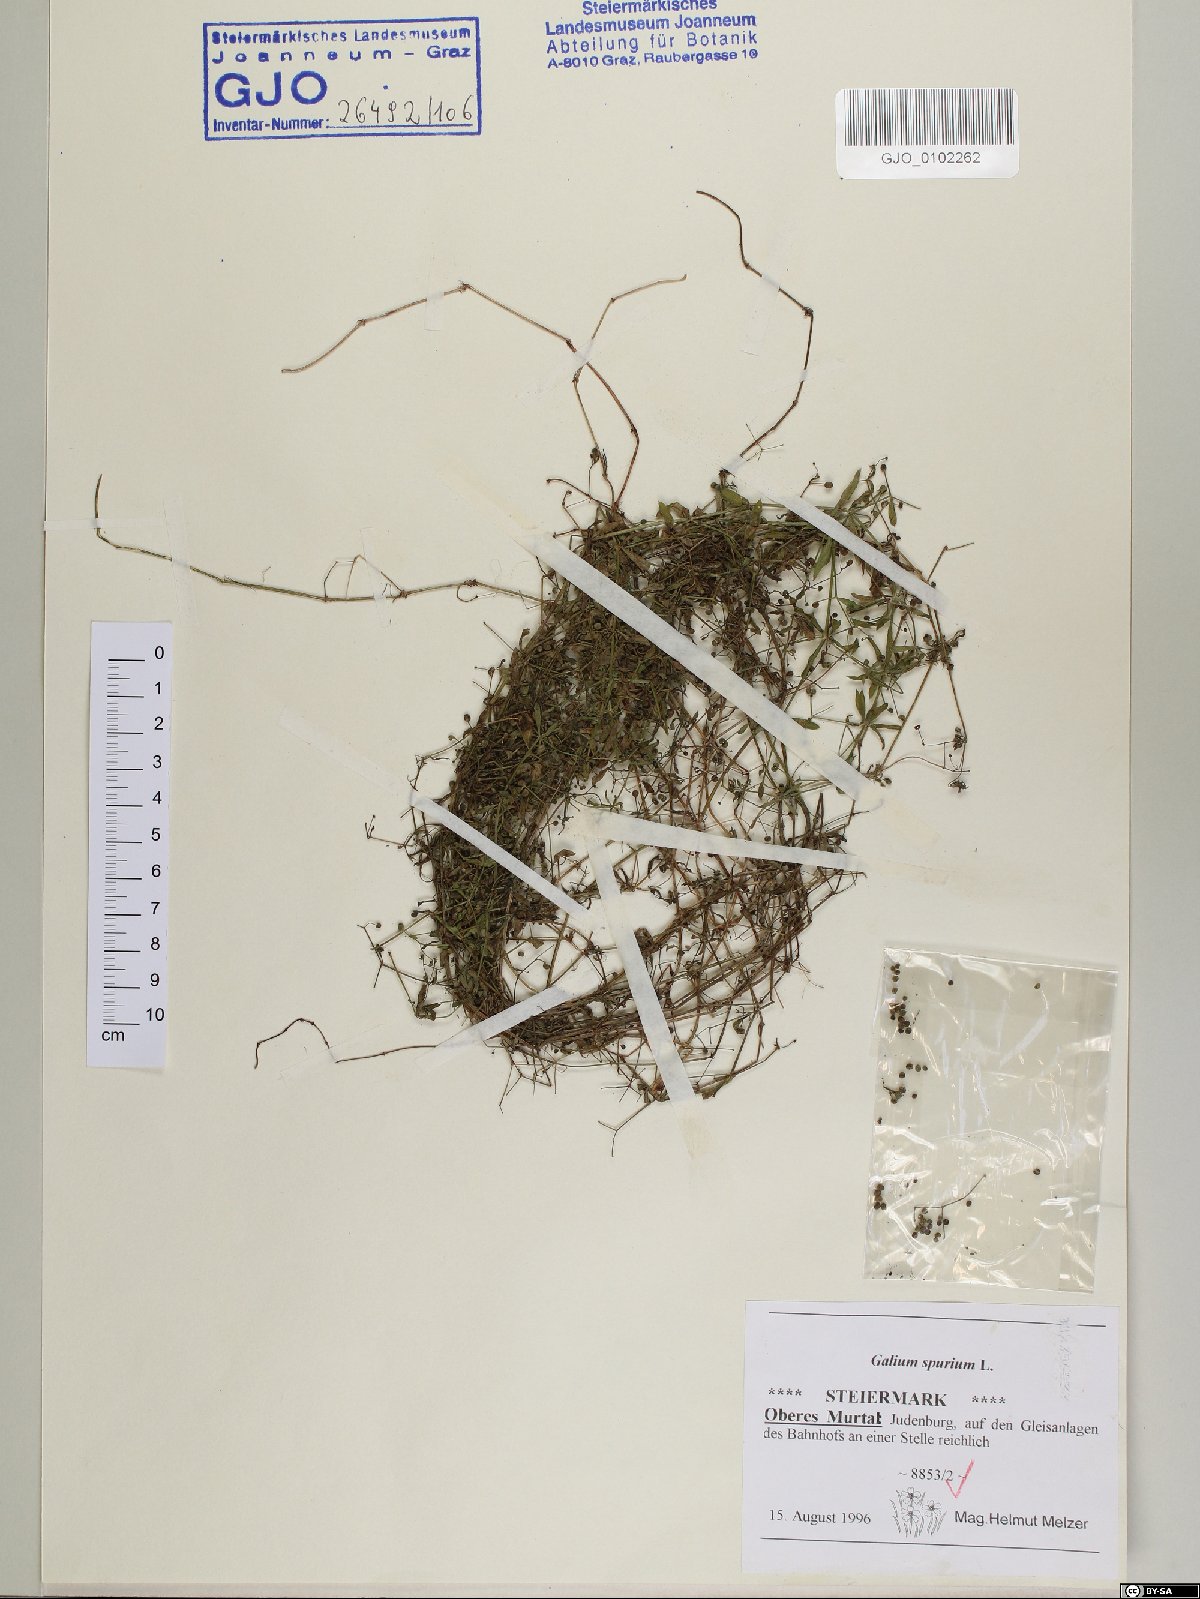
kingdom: Plantae
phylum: Tracheophyta
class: Magnoliopsida
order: Gentianales
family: Rubiaceae
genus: Galium
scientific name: Galium spurium
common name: False cleavers
